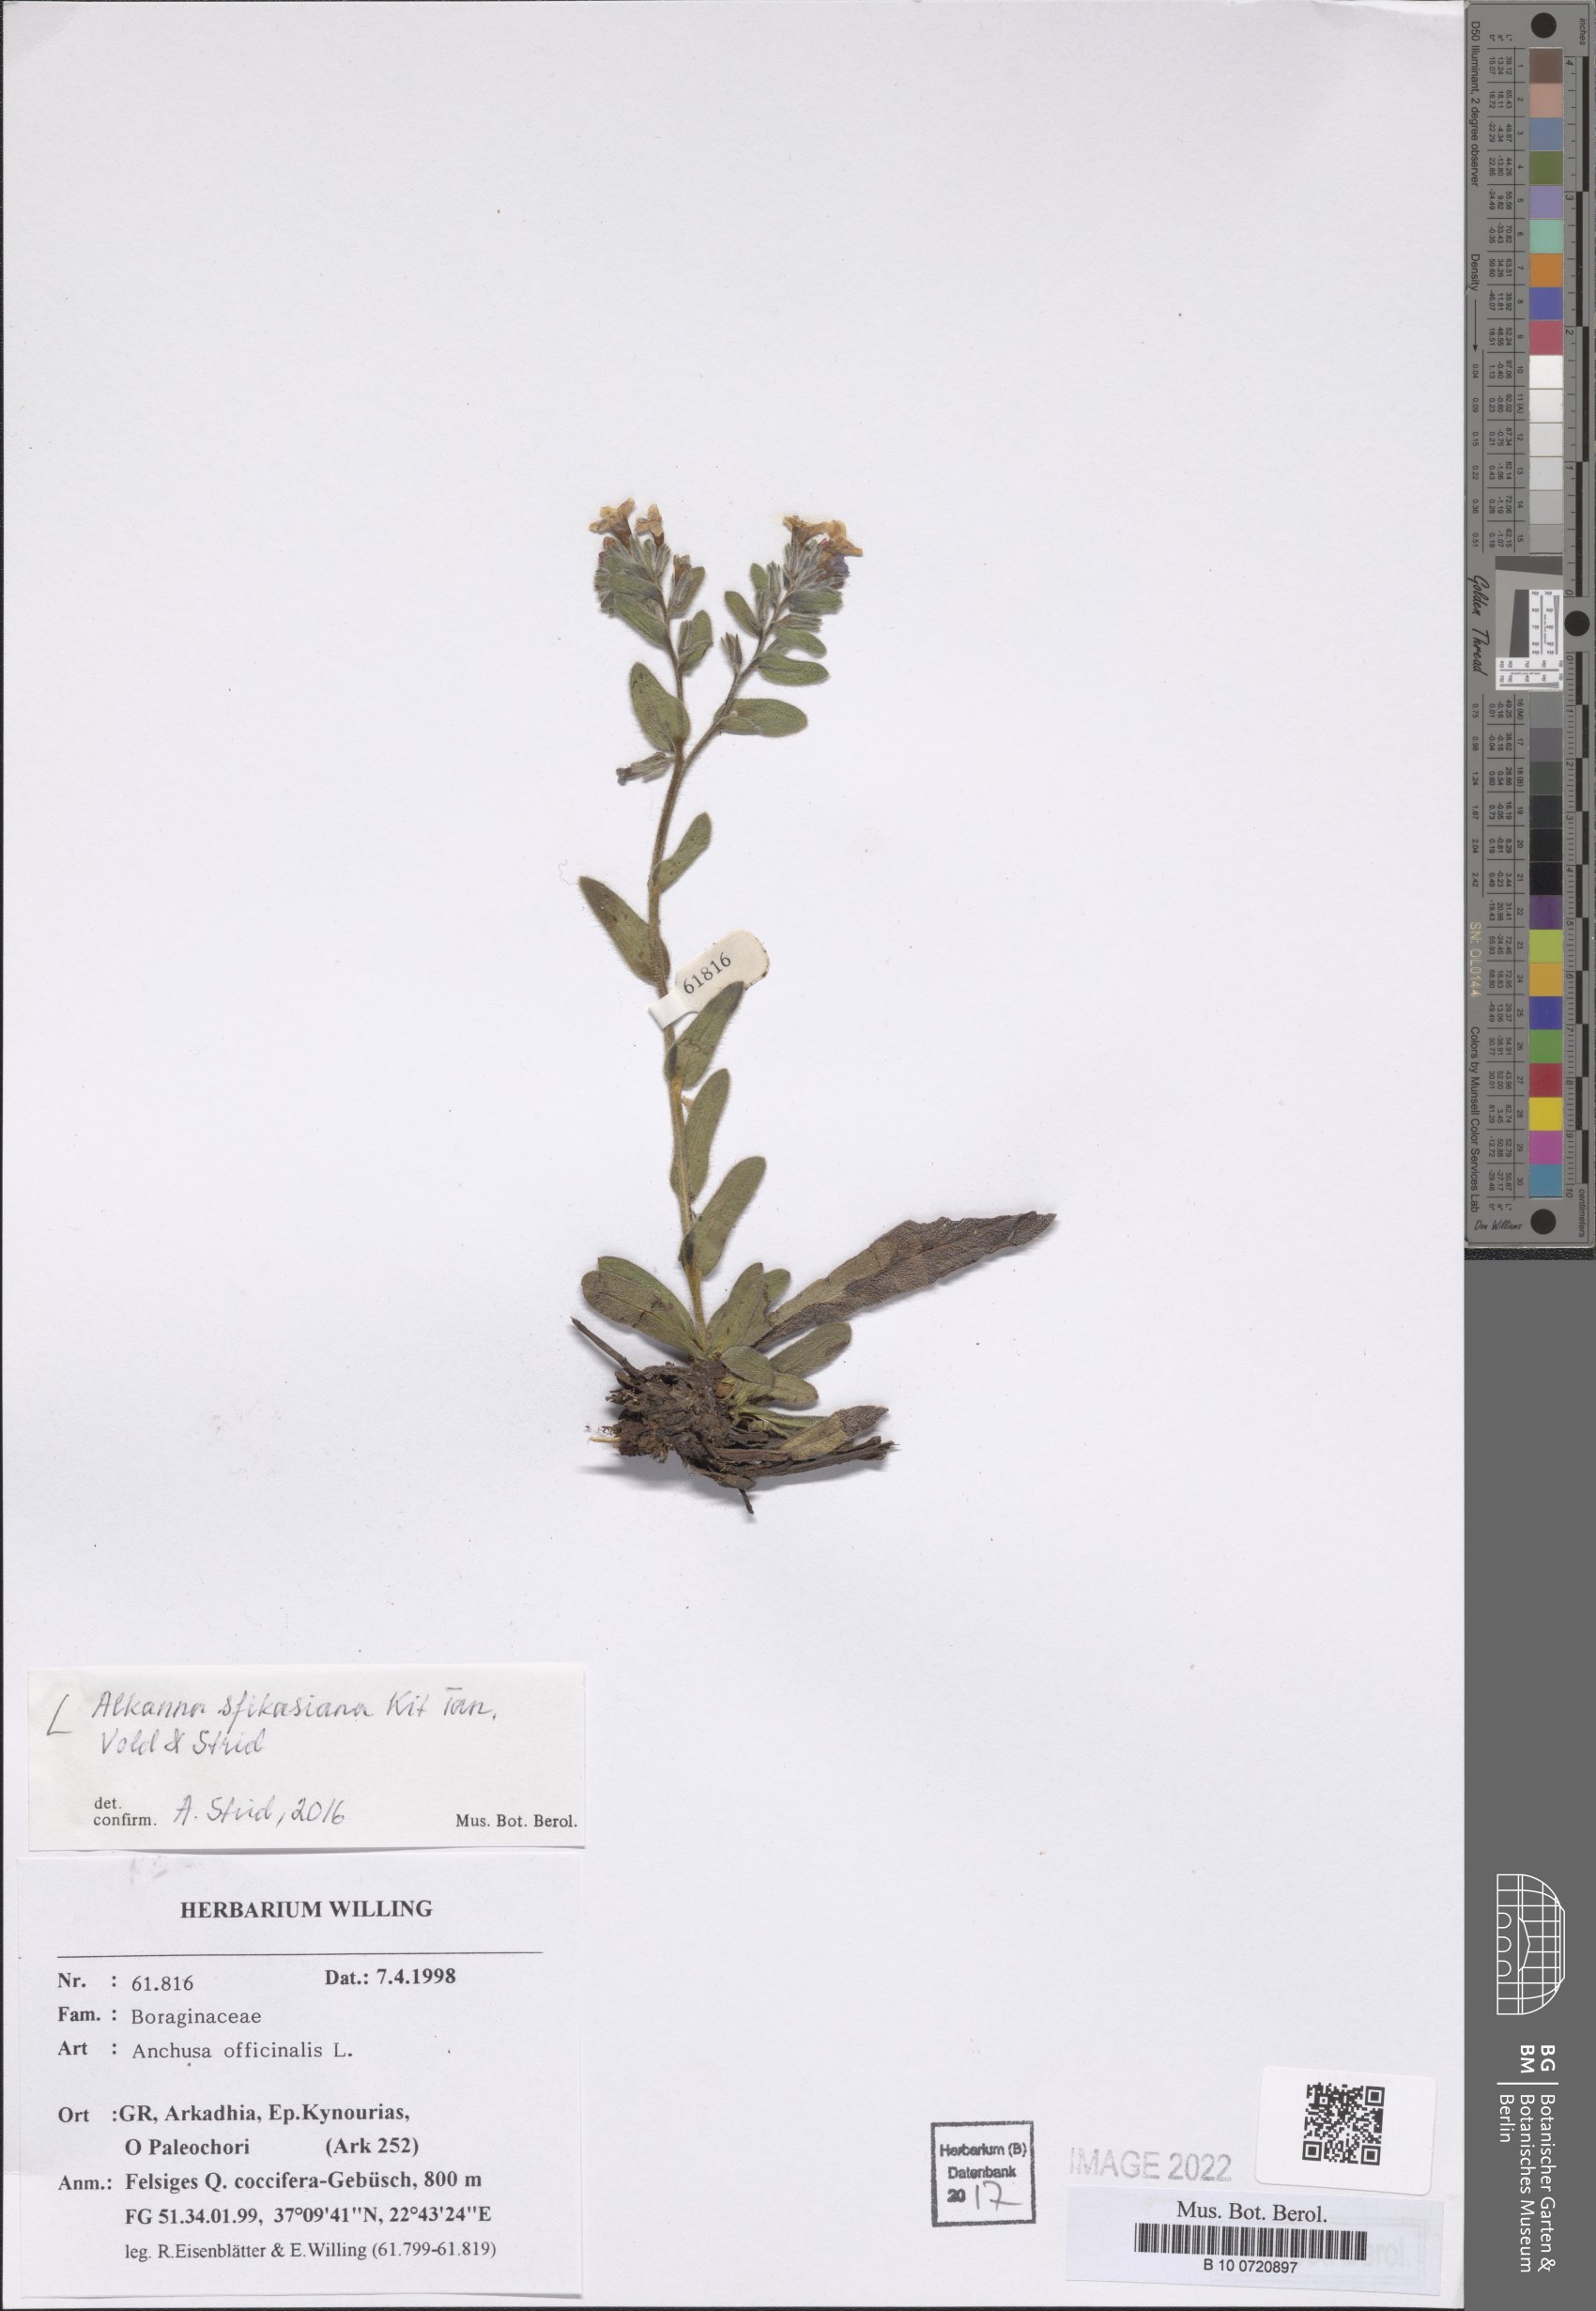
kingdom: Plantae
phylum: Tracheophyta
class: Magnoliopsida
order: Boraginales
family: Boraginaceae
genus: Alkanna
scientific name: Alkanna sfikasiana
